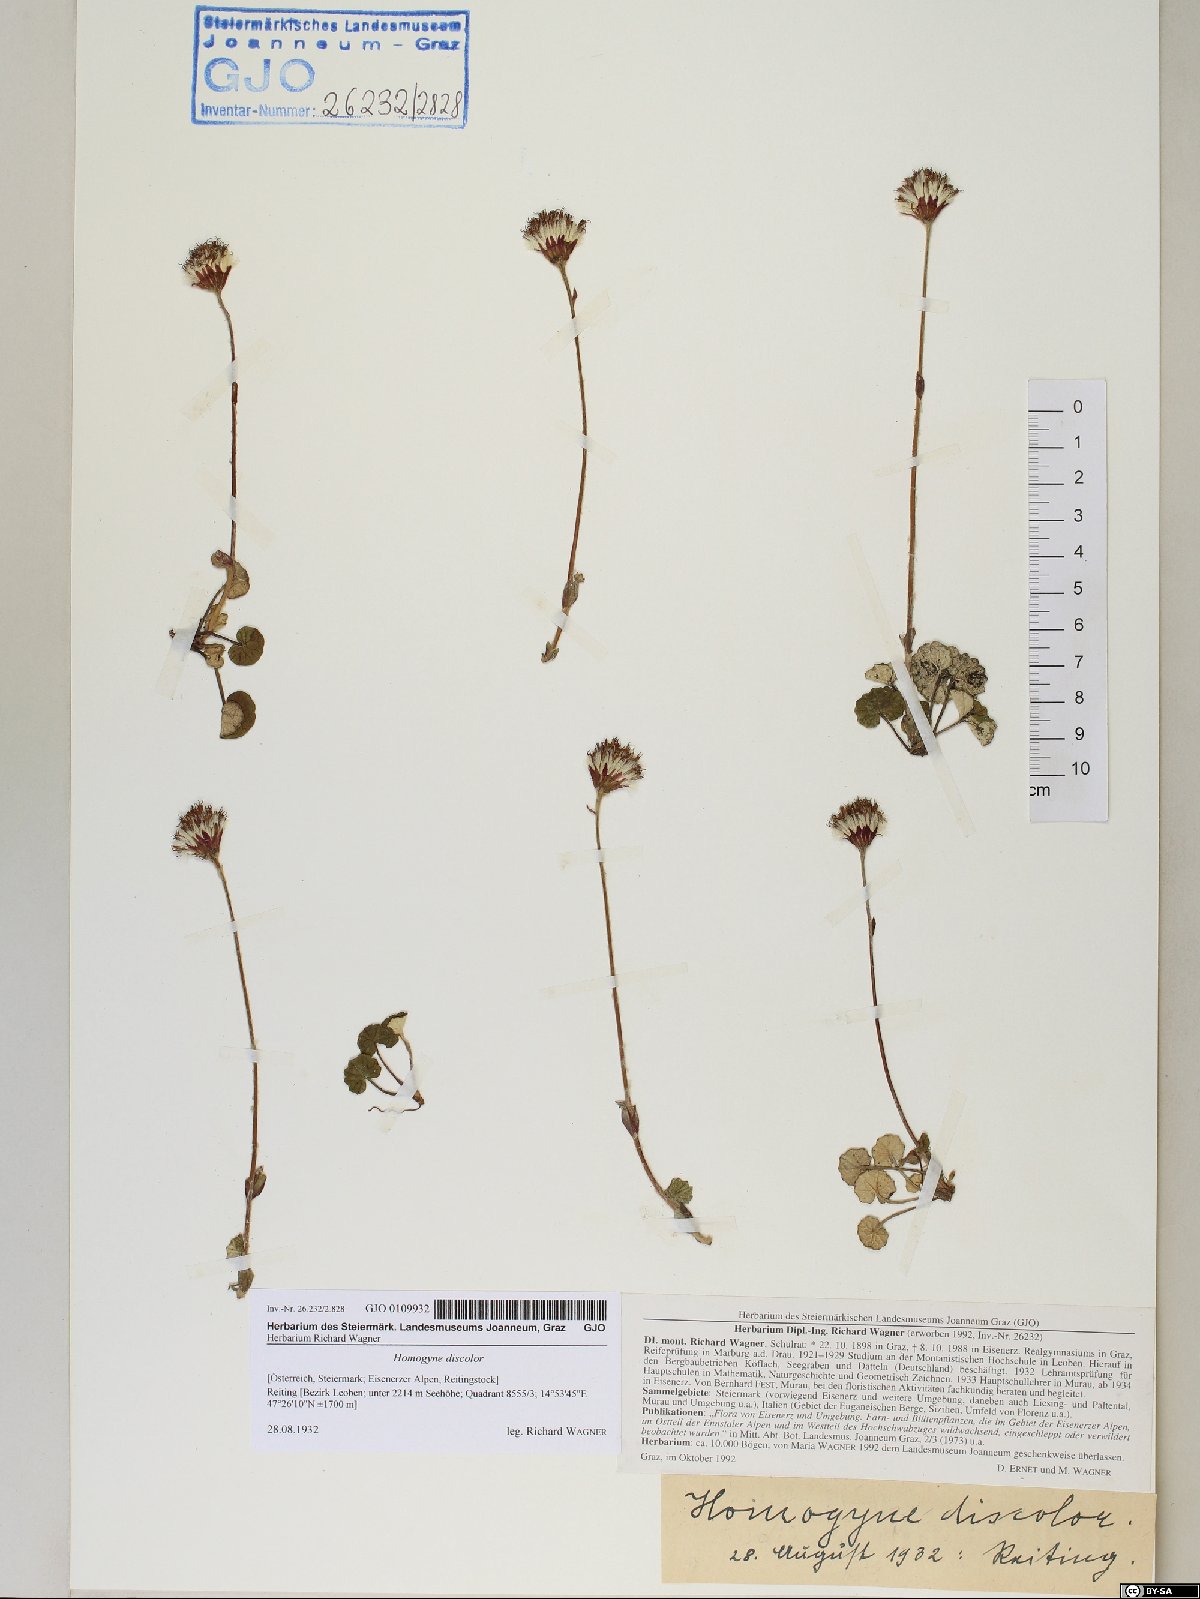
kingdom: Plantae
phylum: Tracheophyta
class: Magnoliopsida
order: Asterales
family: Asteraceae
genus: Homogyne
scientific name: Homogyne discolor
